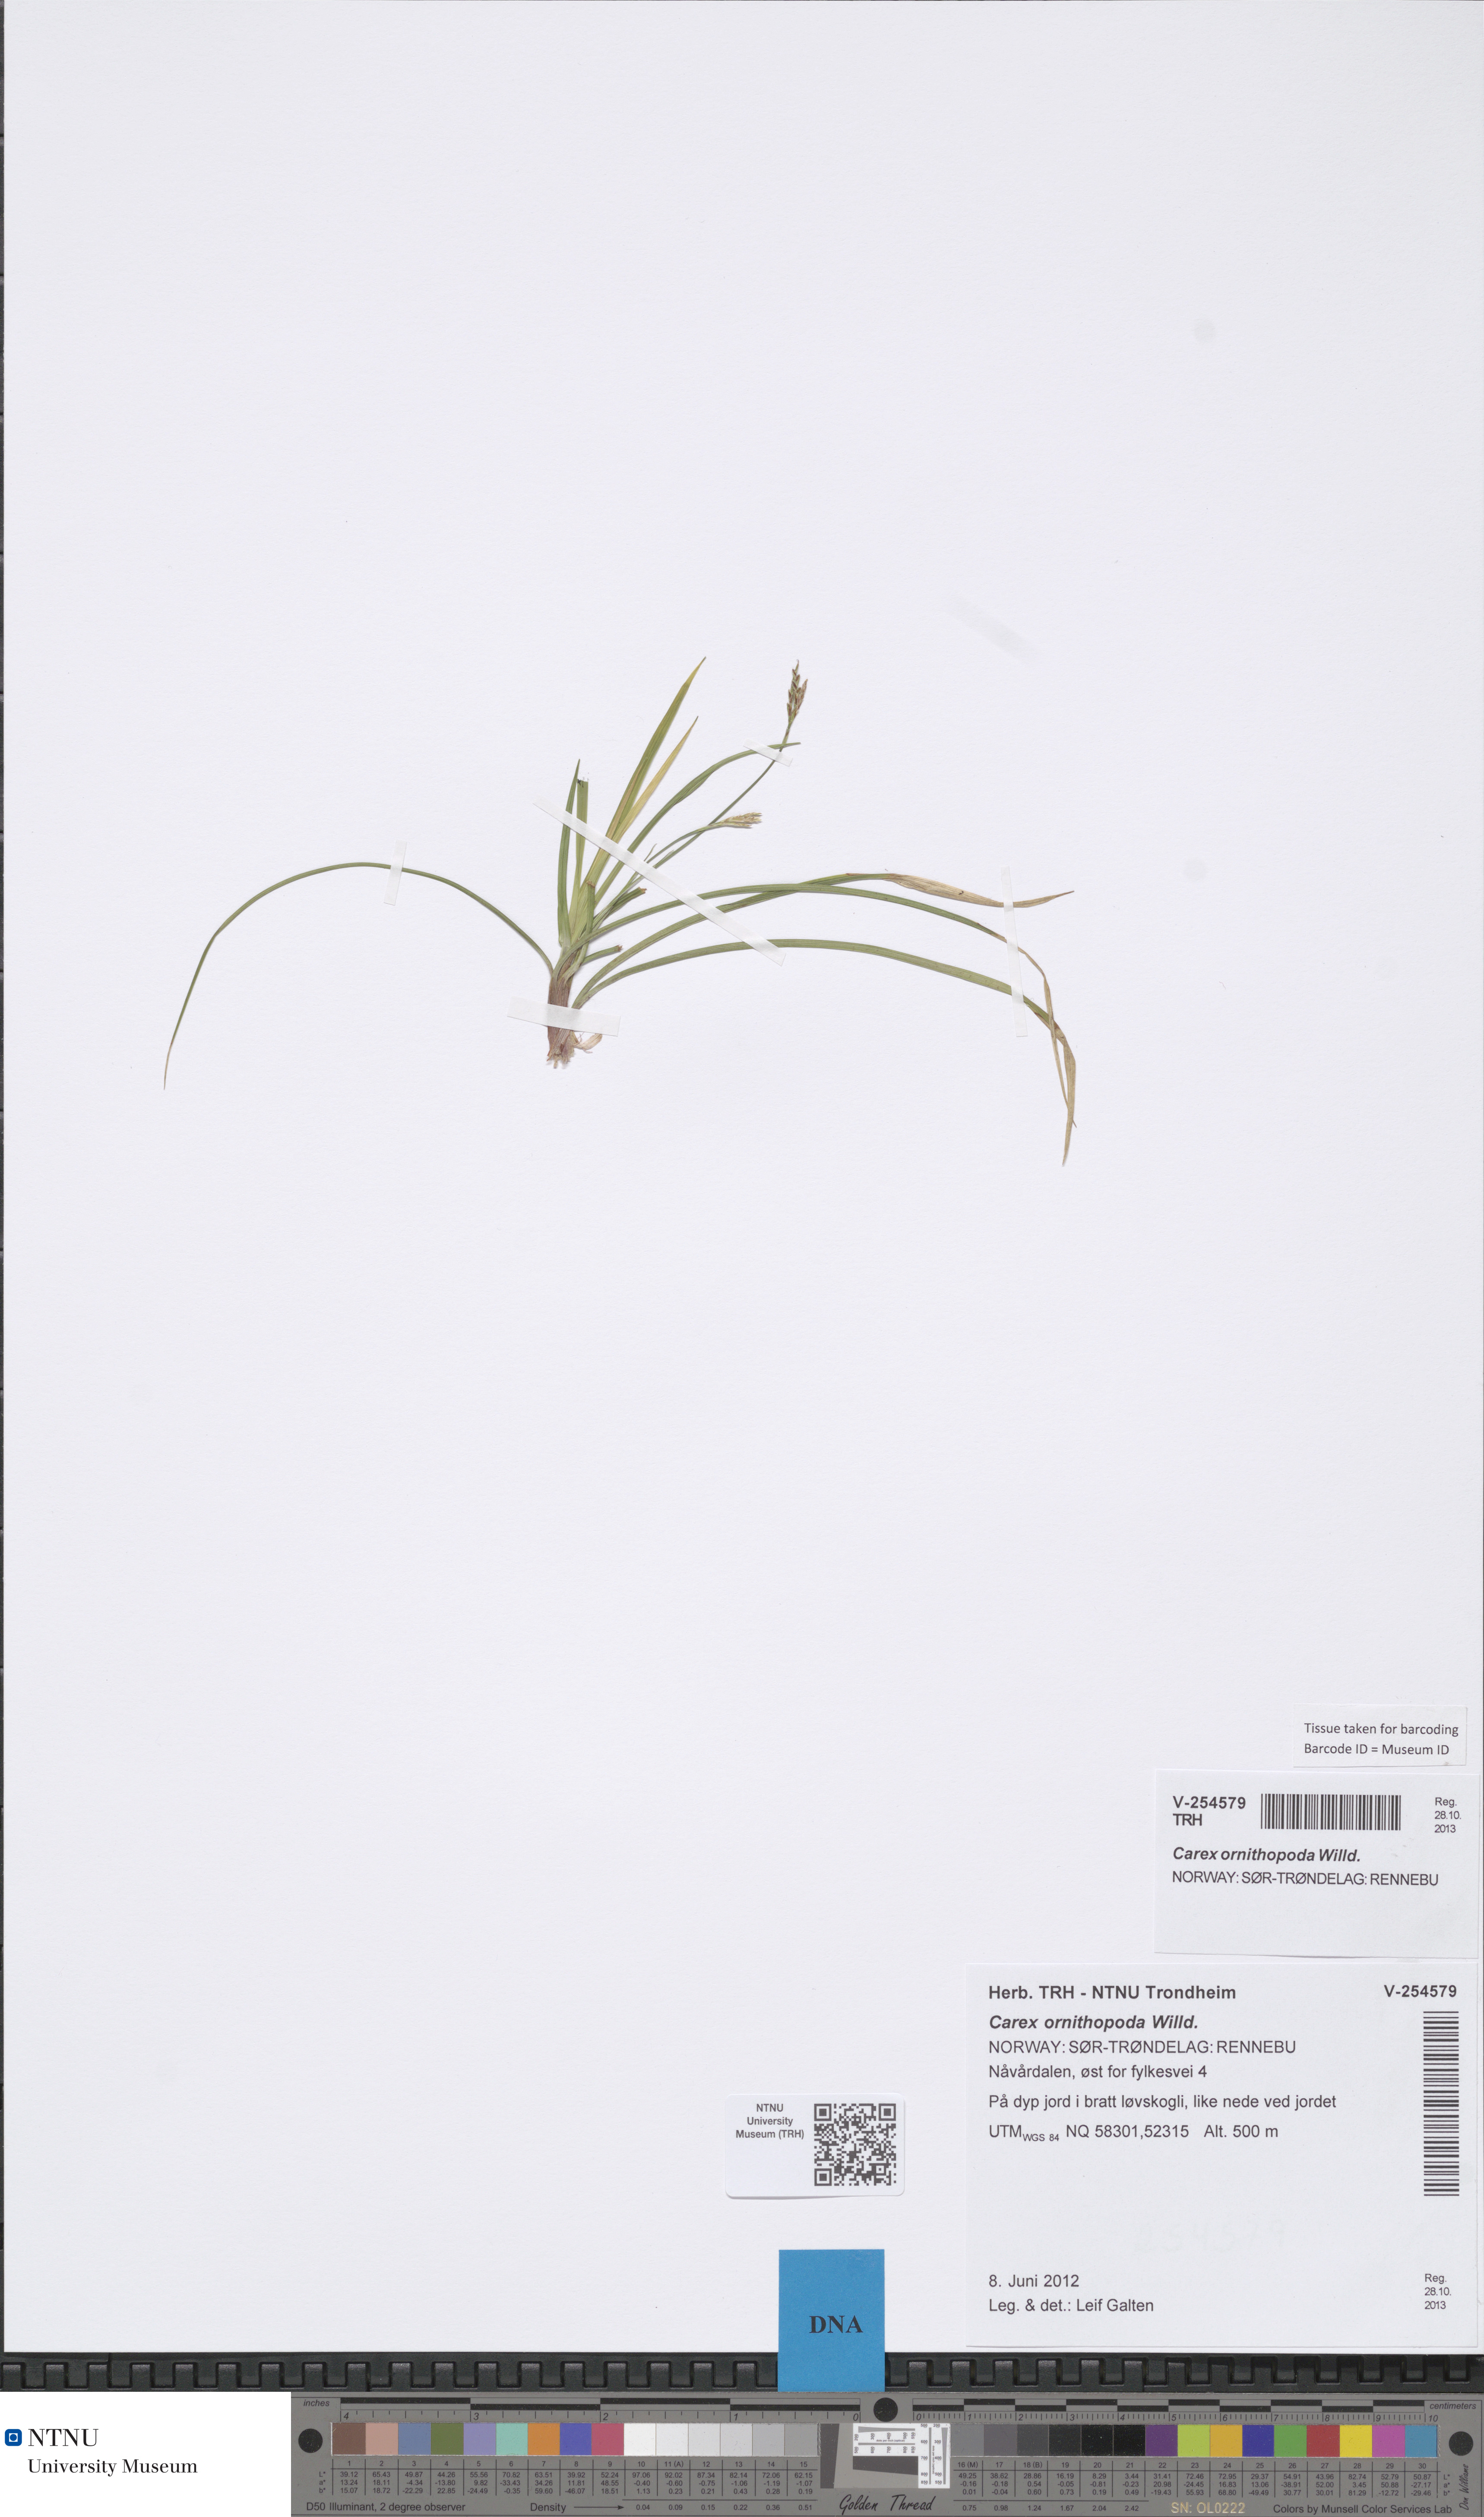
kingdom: Plantae
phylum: Tracheophyta
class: Liliopsida
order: Poales
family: Cyperaceae
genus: Carex
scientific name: Carex ornithopoda
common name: Bird's-foot sedge
